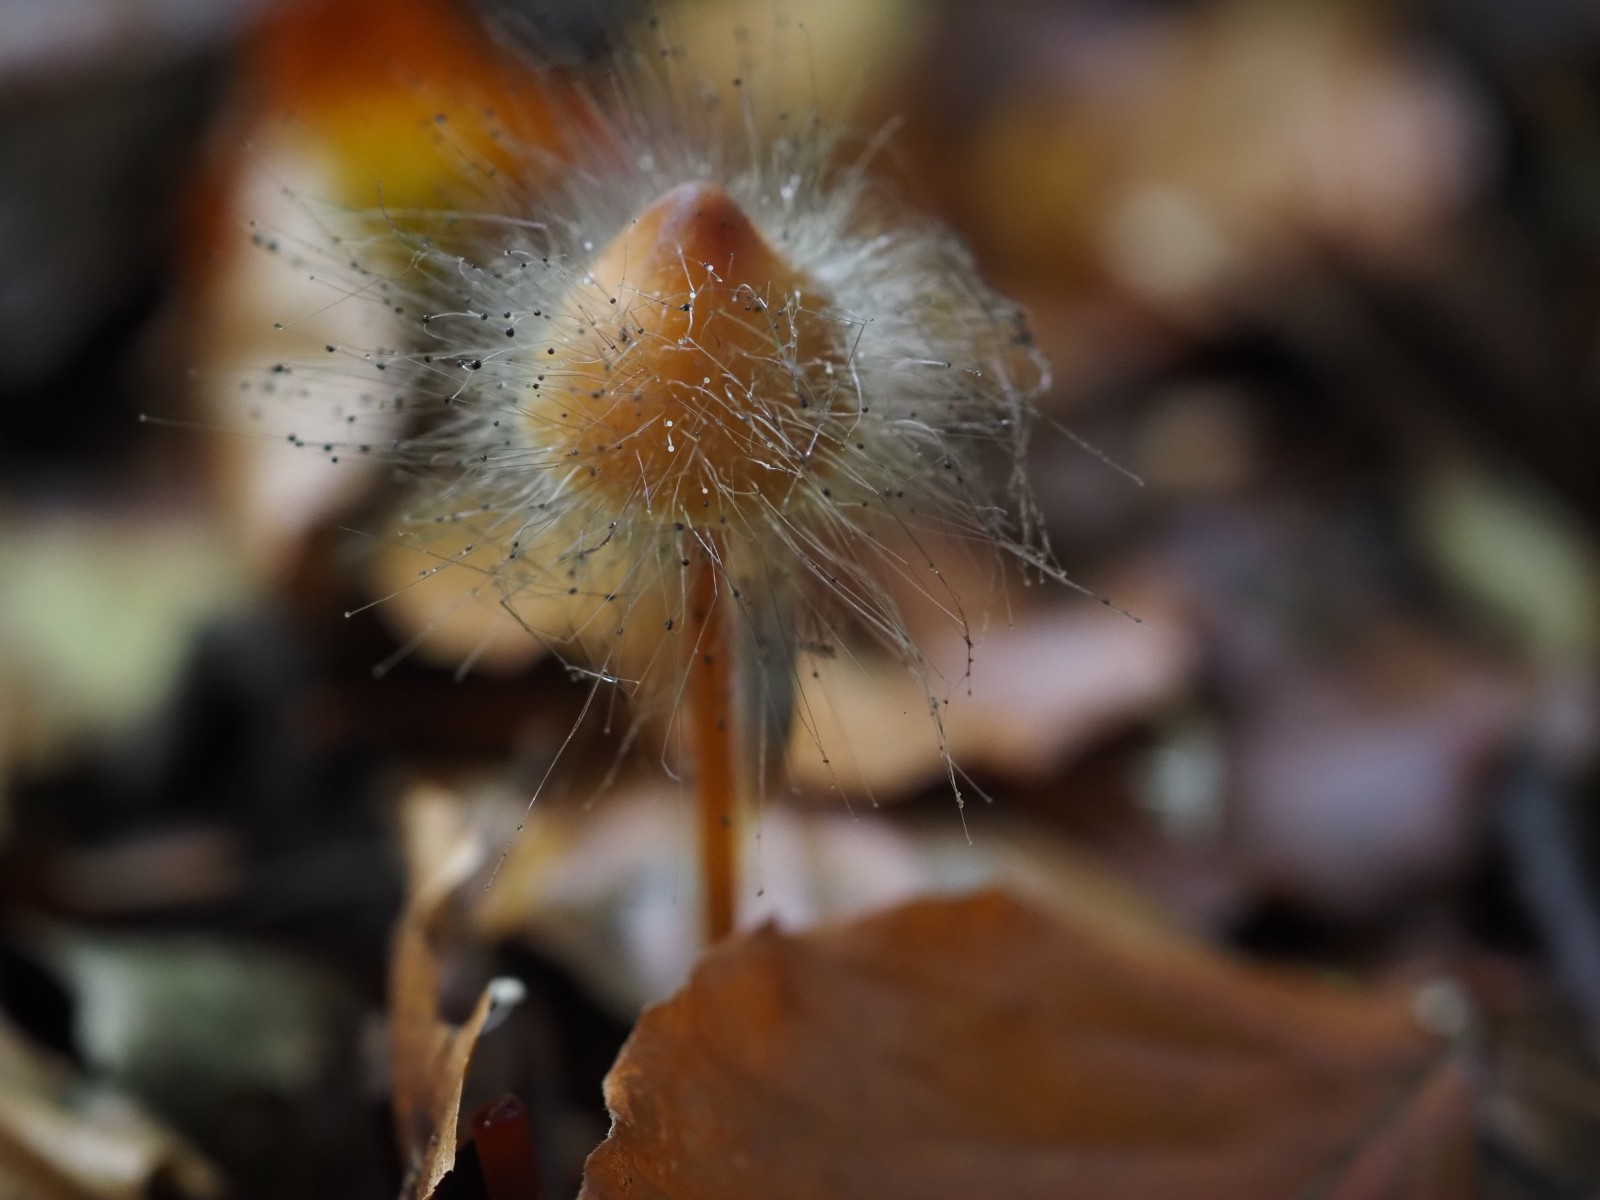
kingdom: Fungi
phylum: Mucoromycota
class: Mucoromycetes
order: Mucorales
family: Phycomycetaceae
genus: Spinellus
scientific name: Spinellus fusiger
